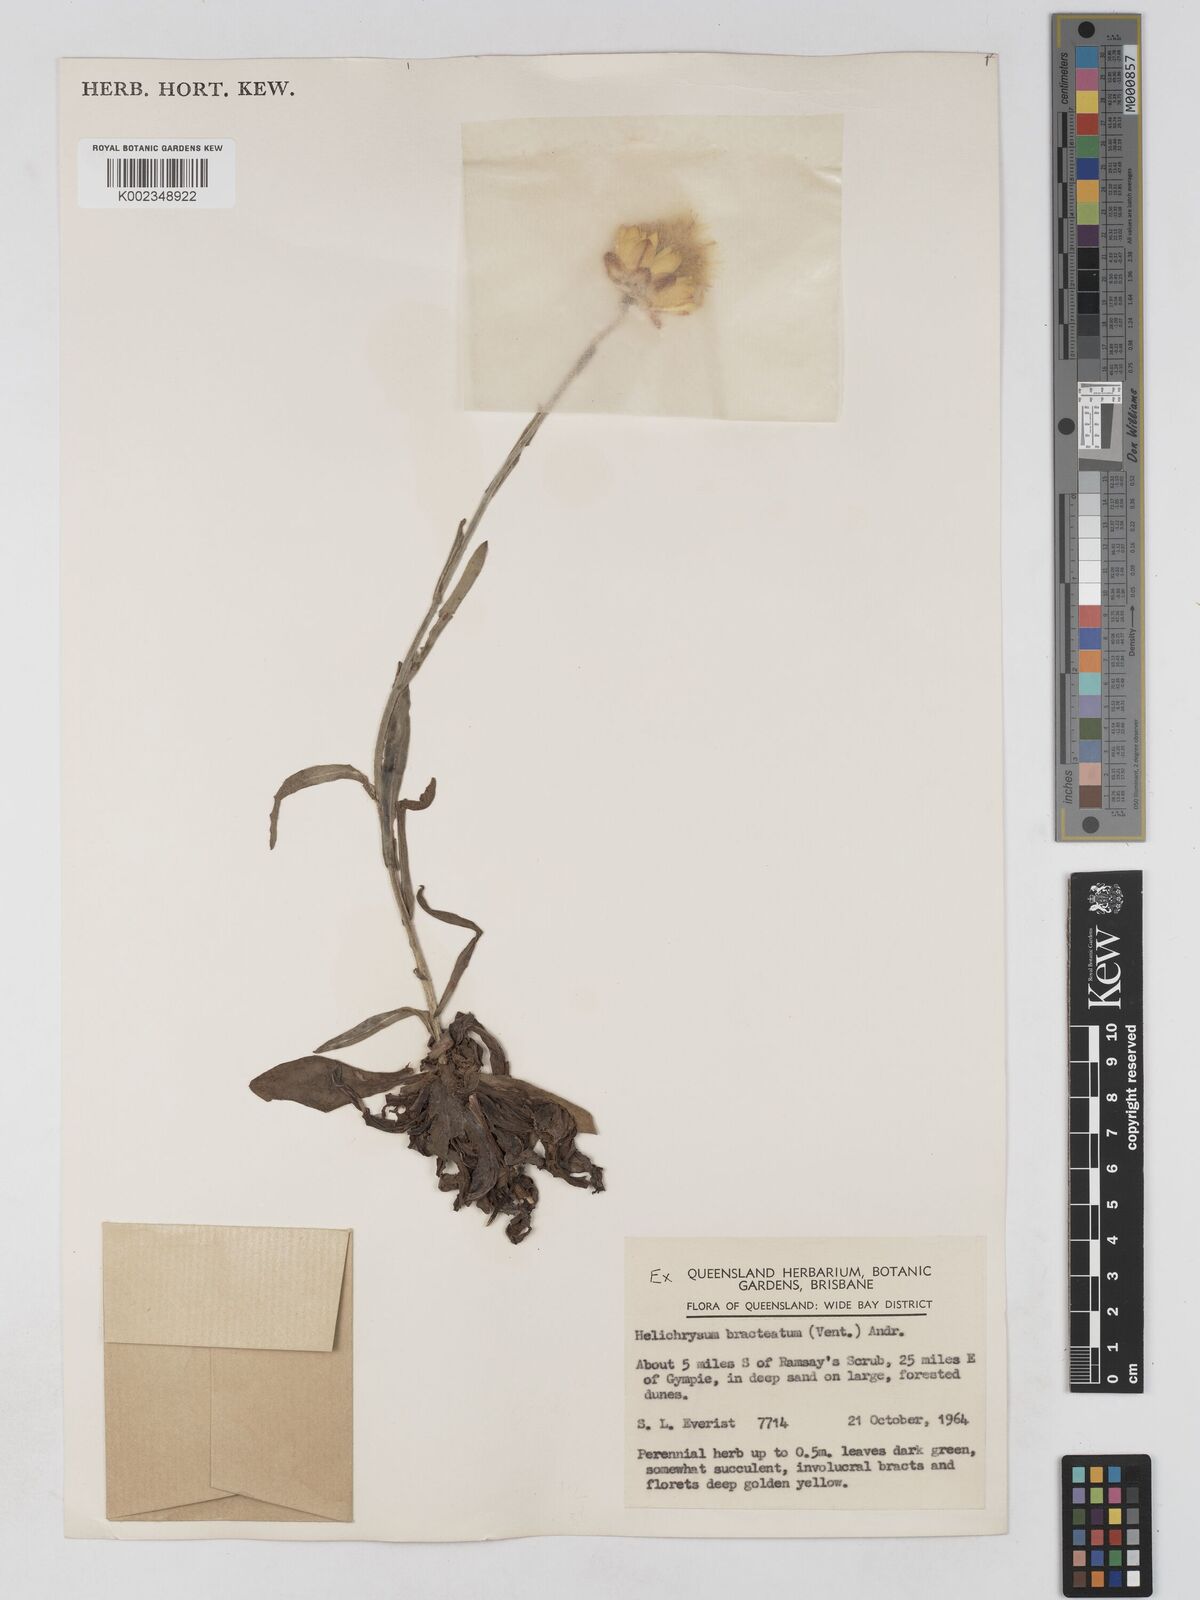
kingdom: Plantae
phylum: Tracheophyta
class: Magnoliopsida
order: Asterales
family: Asteraceae
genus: Xerochrysum
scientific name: Xerochrysum bracteatum
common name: Bracted strawflower
